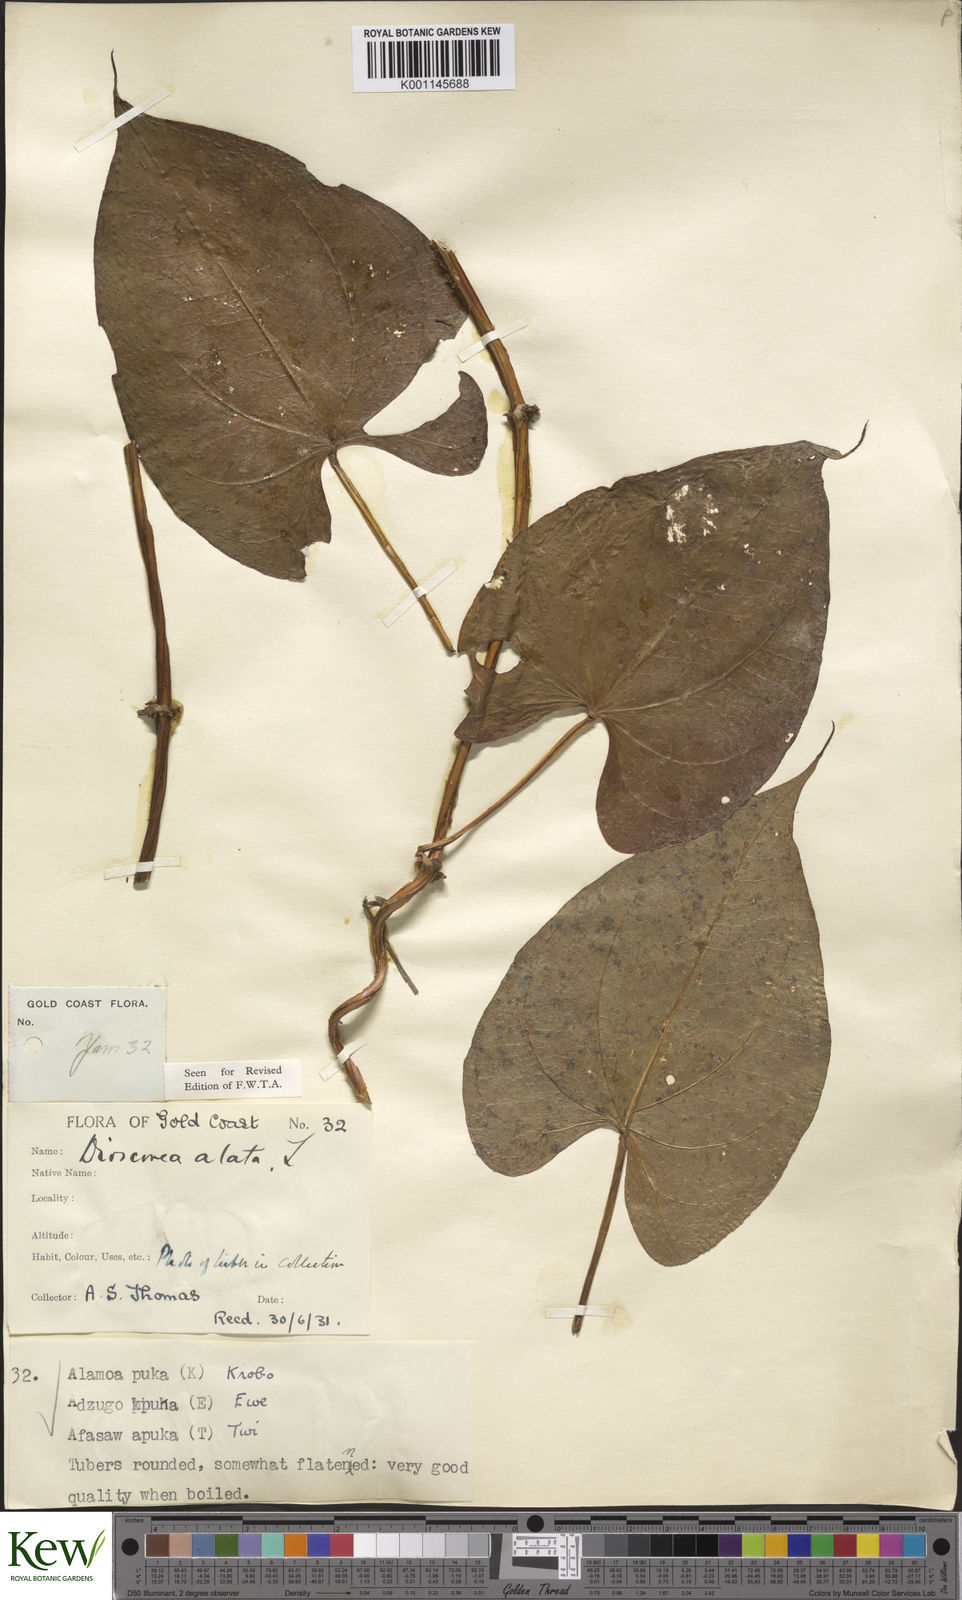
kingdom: Plantae
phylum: Tracheophyta
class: Liliopsida
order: Dioscoreales
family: Dioscoreaceae
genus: Dioscorea
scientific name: Dioscorea alata
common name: Water yam
